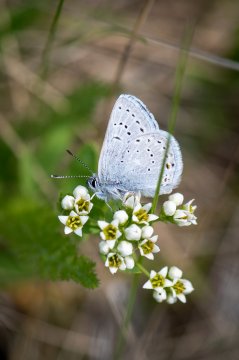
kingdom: Animalia
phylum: Arthropoda
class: Insecta
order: Lepidoptera
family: Lycaenidae
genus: Plebejus
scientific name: Plebejus saepiolus
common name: Greenish Blue
